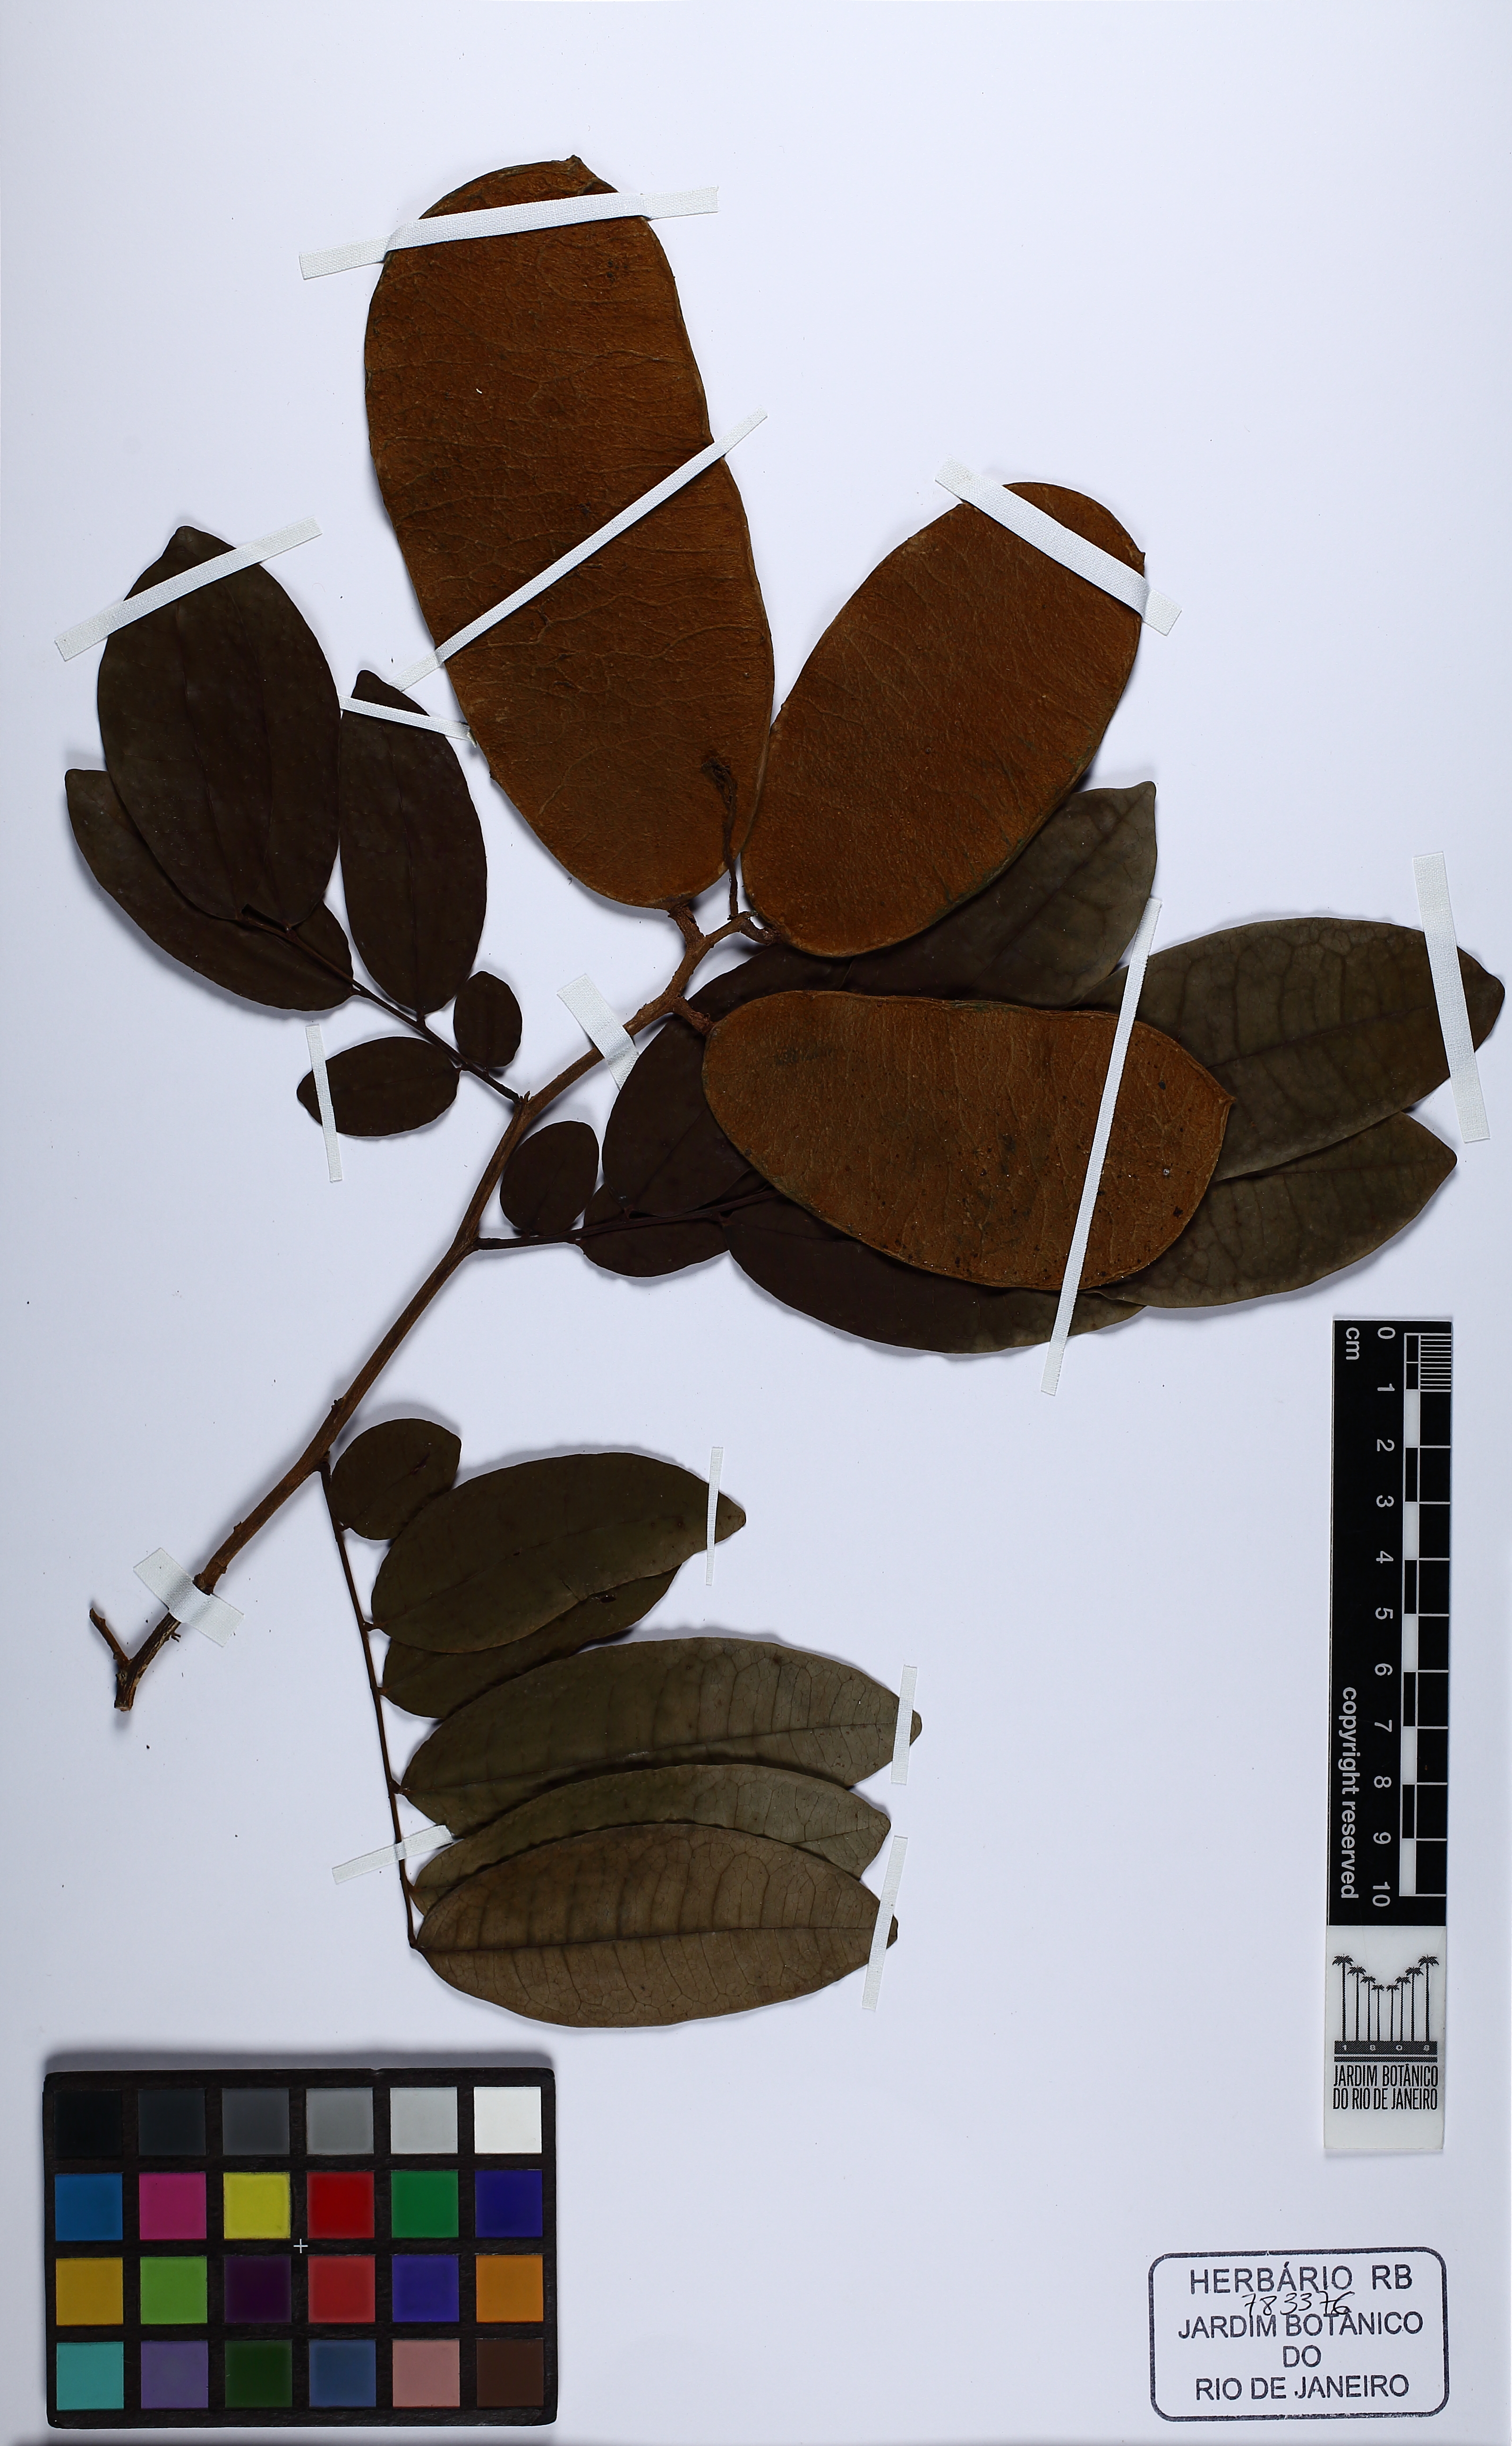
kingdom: Plantae
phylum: Tracheophyta
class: Magnoliopsida
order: Fabales
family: Fabaceae
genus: Crudia
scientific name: Crudia oblonga
